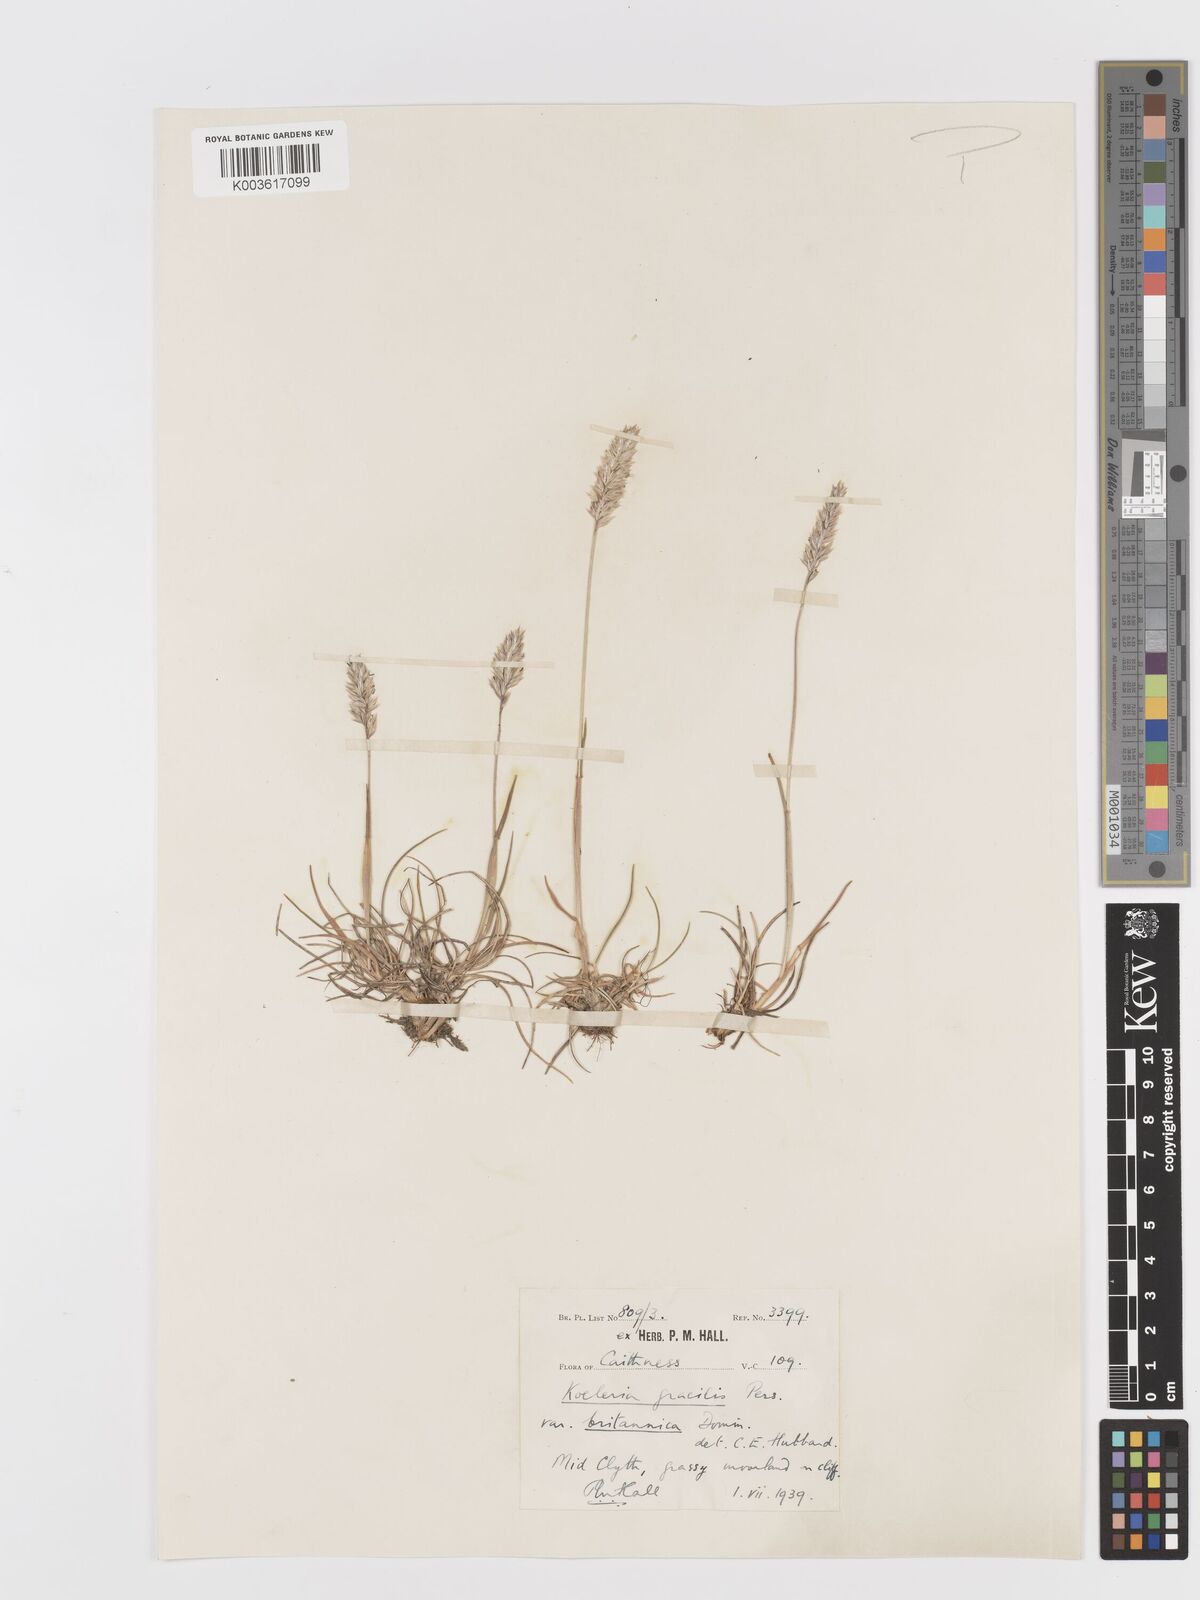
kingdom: Plantae
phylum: Tracheophyta
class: Liliopsida
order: Poales
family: Poaceae
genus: Koeleria
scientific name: Koeleria macrantha
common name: Crested hair-grass
